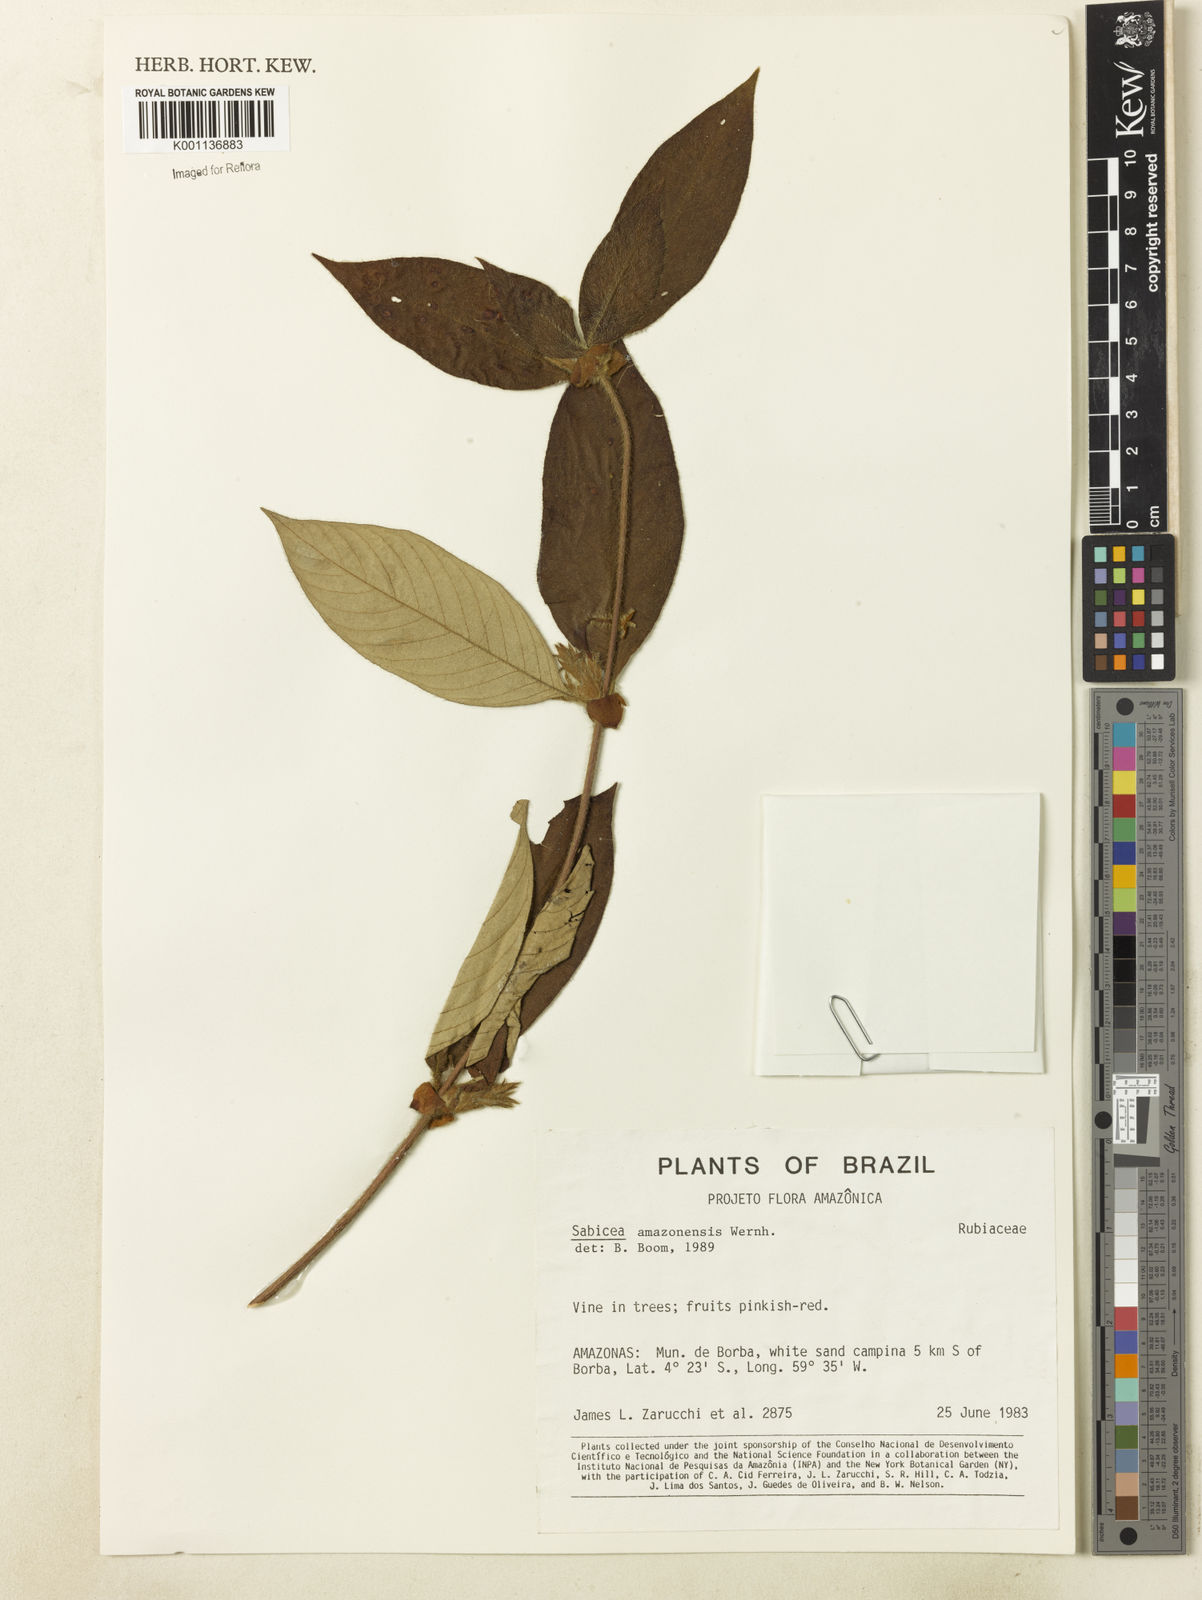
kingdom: Plantae
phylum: Tracheophyta
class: Magnoliopsida
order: Gentianales
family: Rubiaceae
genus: Sabicea
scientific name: Sabicea amazonensis
